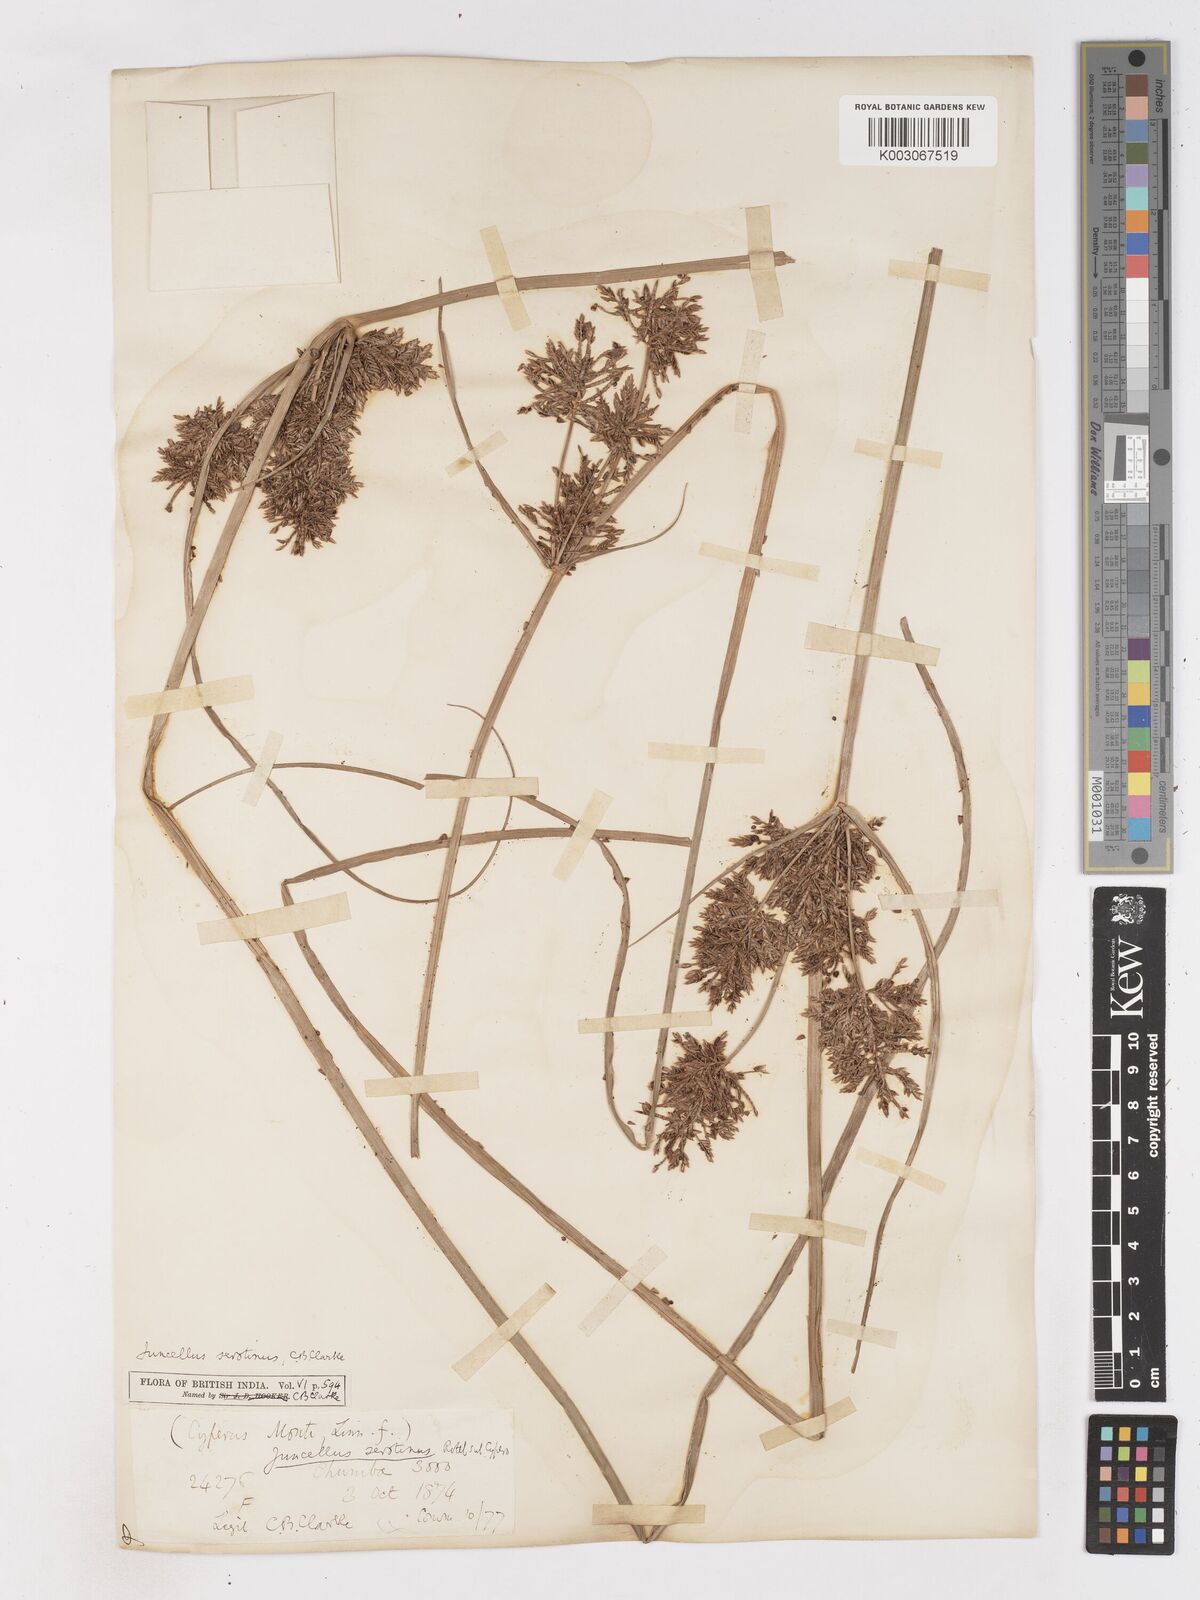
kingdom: Plantae
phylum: Tracheophyta
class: Liliopsida
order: Poales
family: Cyperaceae
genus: Cyperus
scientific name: Cyperus serotinus
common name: Tidalmarsh flatsedge
